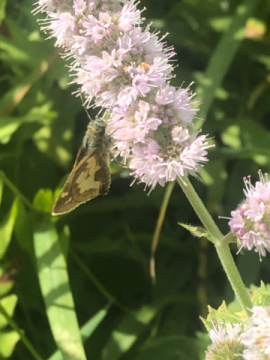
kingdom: Animalia
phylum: Arthropoda
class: Insecta
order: Lepidoptera
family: Hesperiidae
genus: Polites
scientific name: Polites coras
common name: Peck's Skipper
